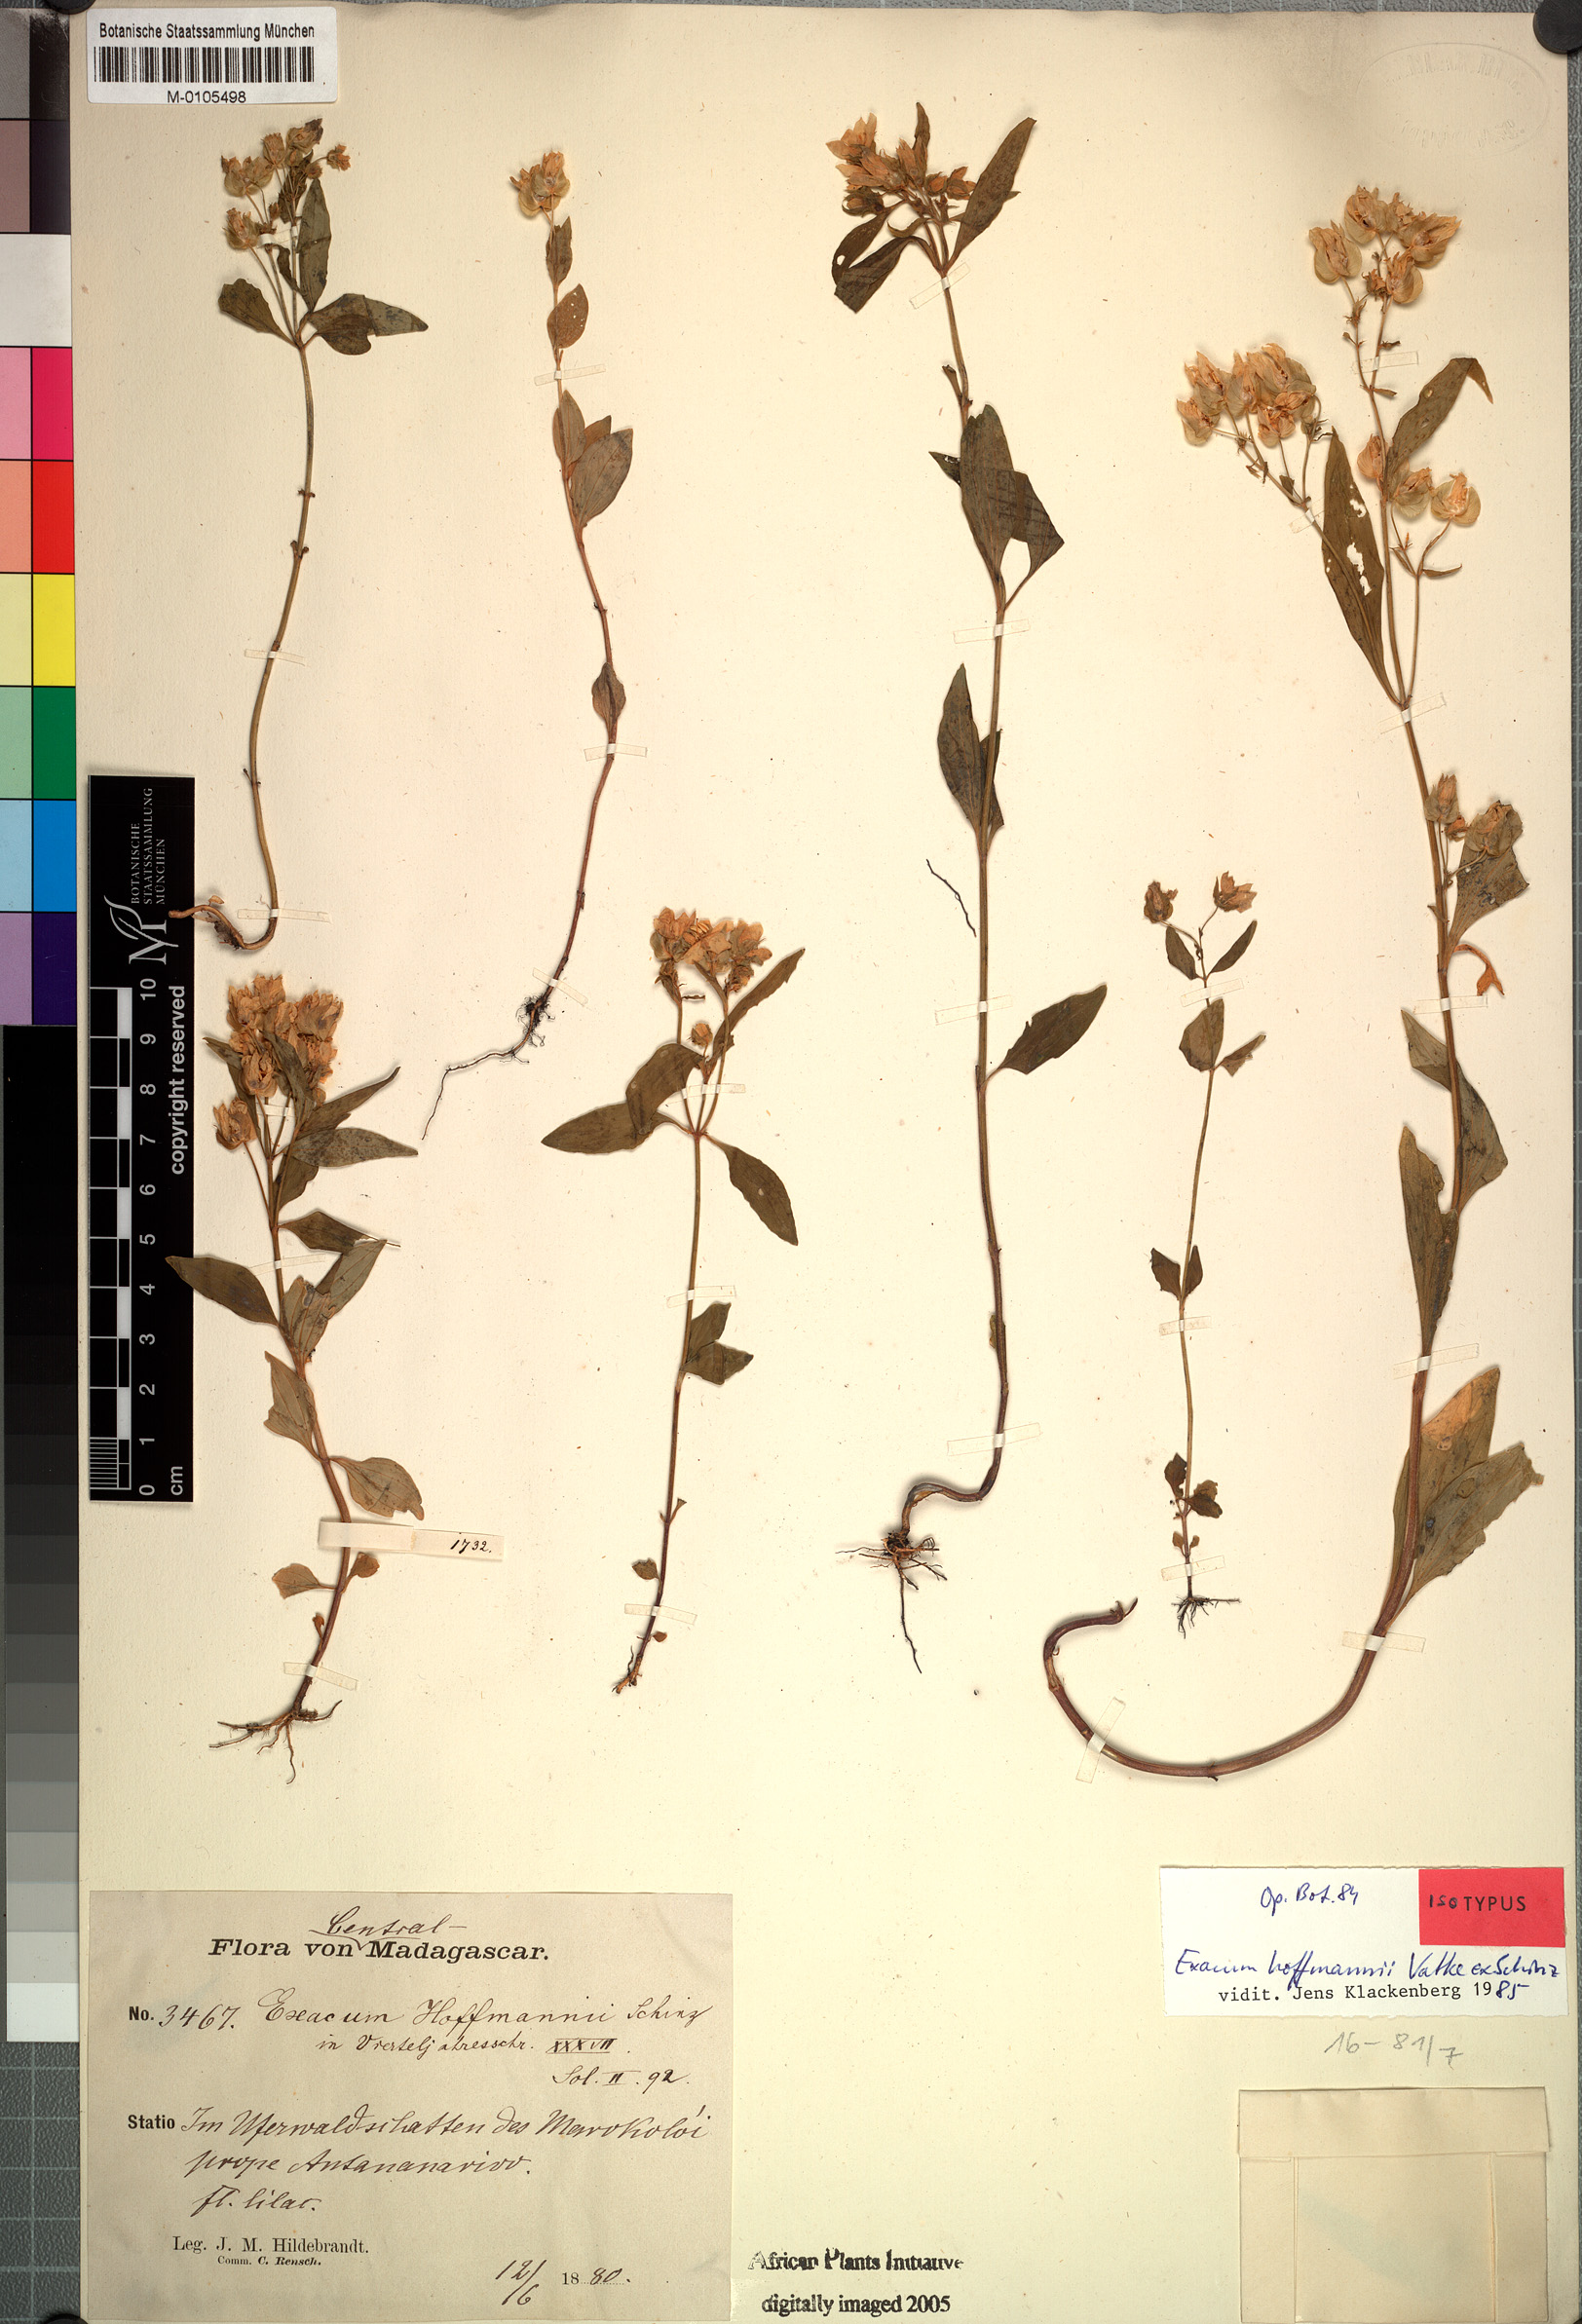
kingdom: Plantae
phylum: Tracheophyta
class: Magnoliopsida
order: Gentianales
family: Gentianaceae
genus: Exacum
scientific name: Exacum hoffmannii
